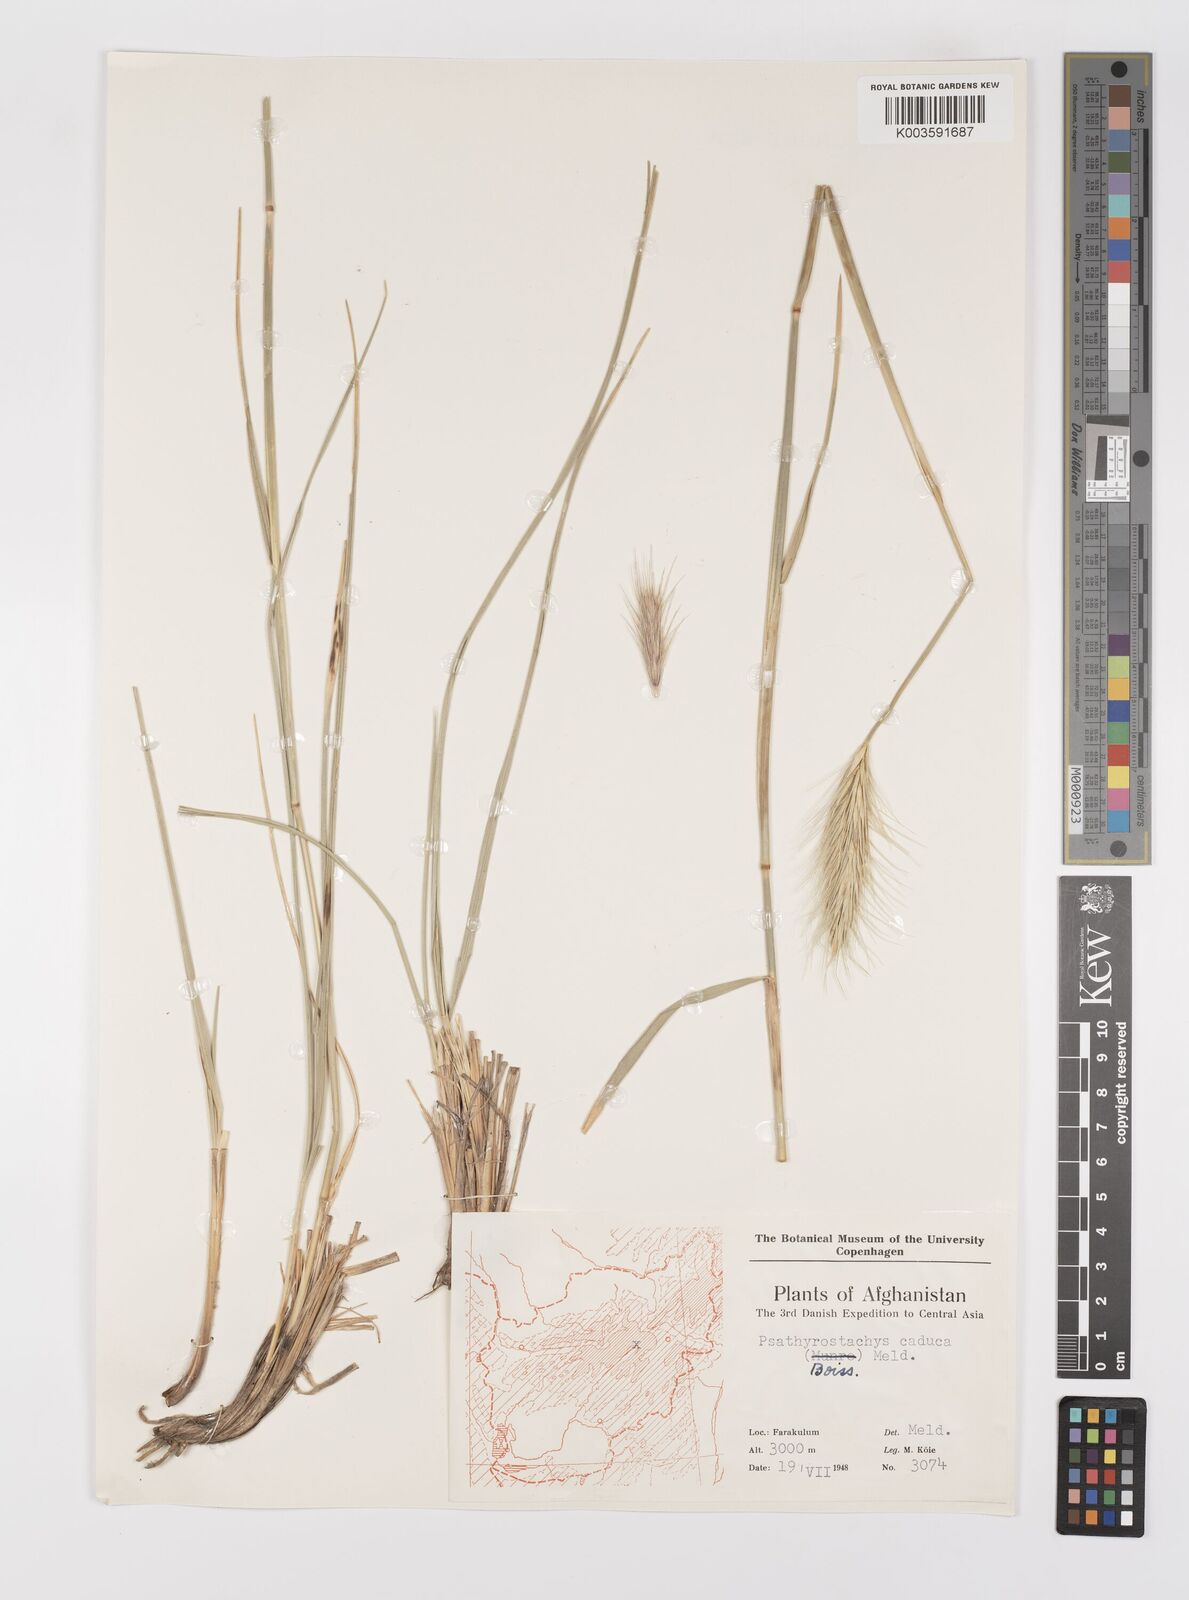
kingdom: Plantae
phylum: Tracheophyta
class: Liliopsida
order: Poales
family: Poaceae
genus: Psathyrostachys
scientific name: Psathyrostachys caduca
